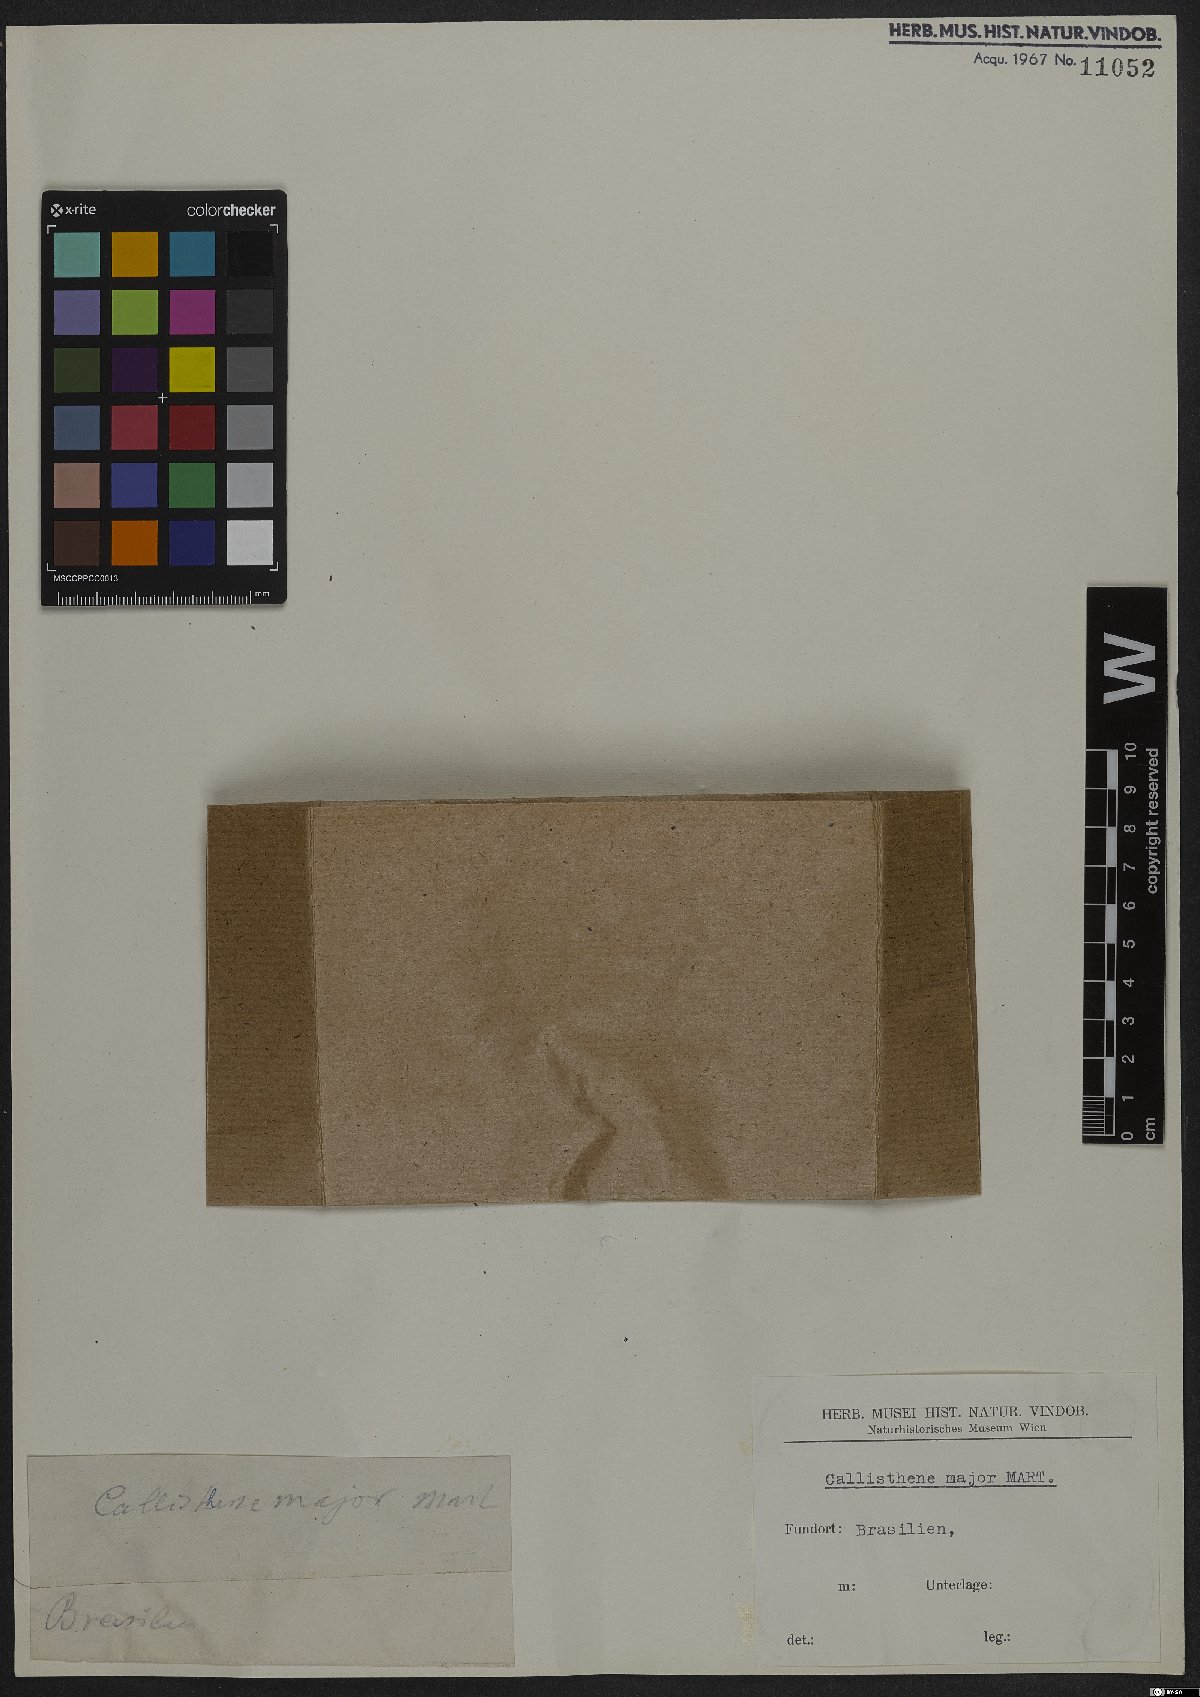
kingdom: Plantae
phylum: Tracheophyta
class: Magnoliopsida
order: Myrtales
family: Vochysiaceae
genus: Callisthene
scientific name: Callisthene major
